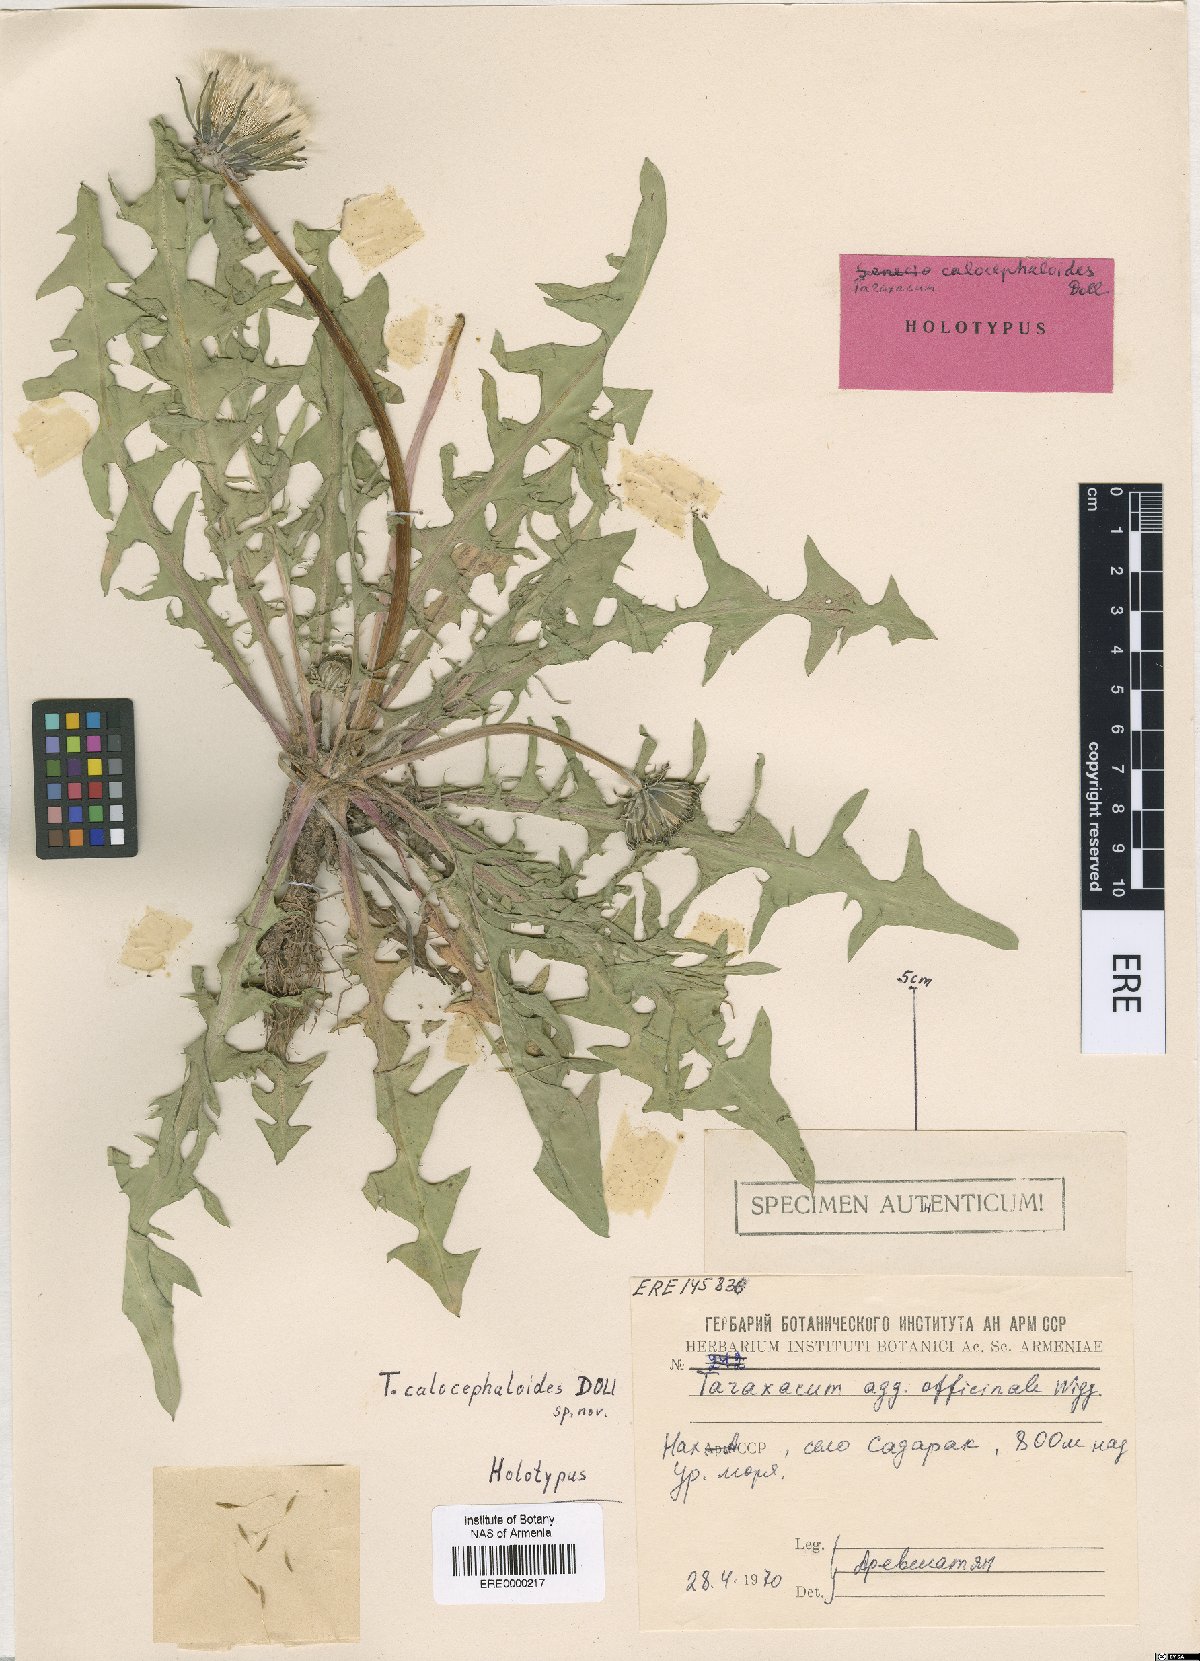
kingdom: Plantae
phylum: Tracheophyta
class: Magnoliopsida
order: Asterales
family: Asteraceae
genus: Taraxacum
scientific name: Taraxacum calocapitatum
